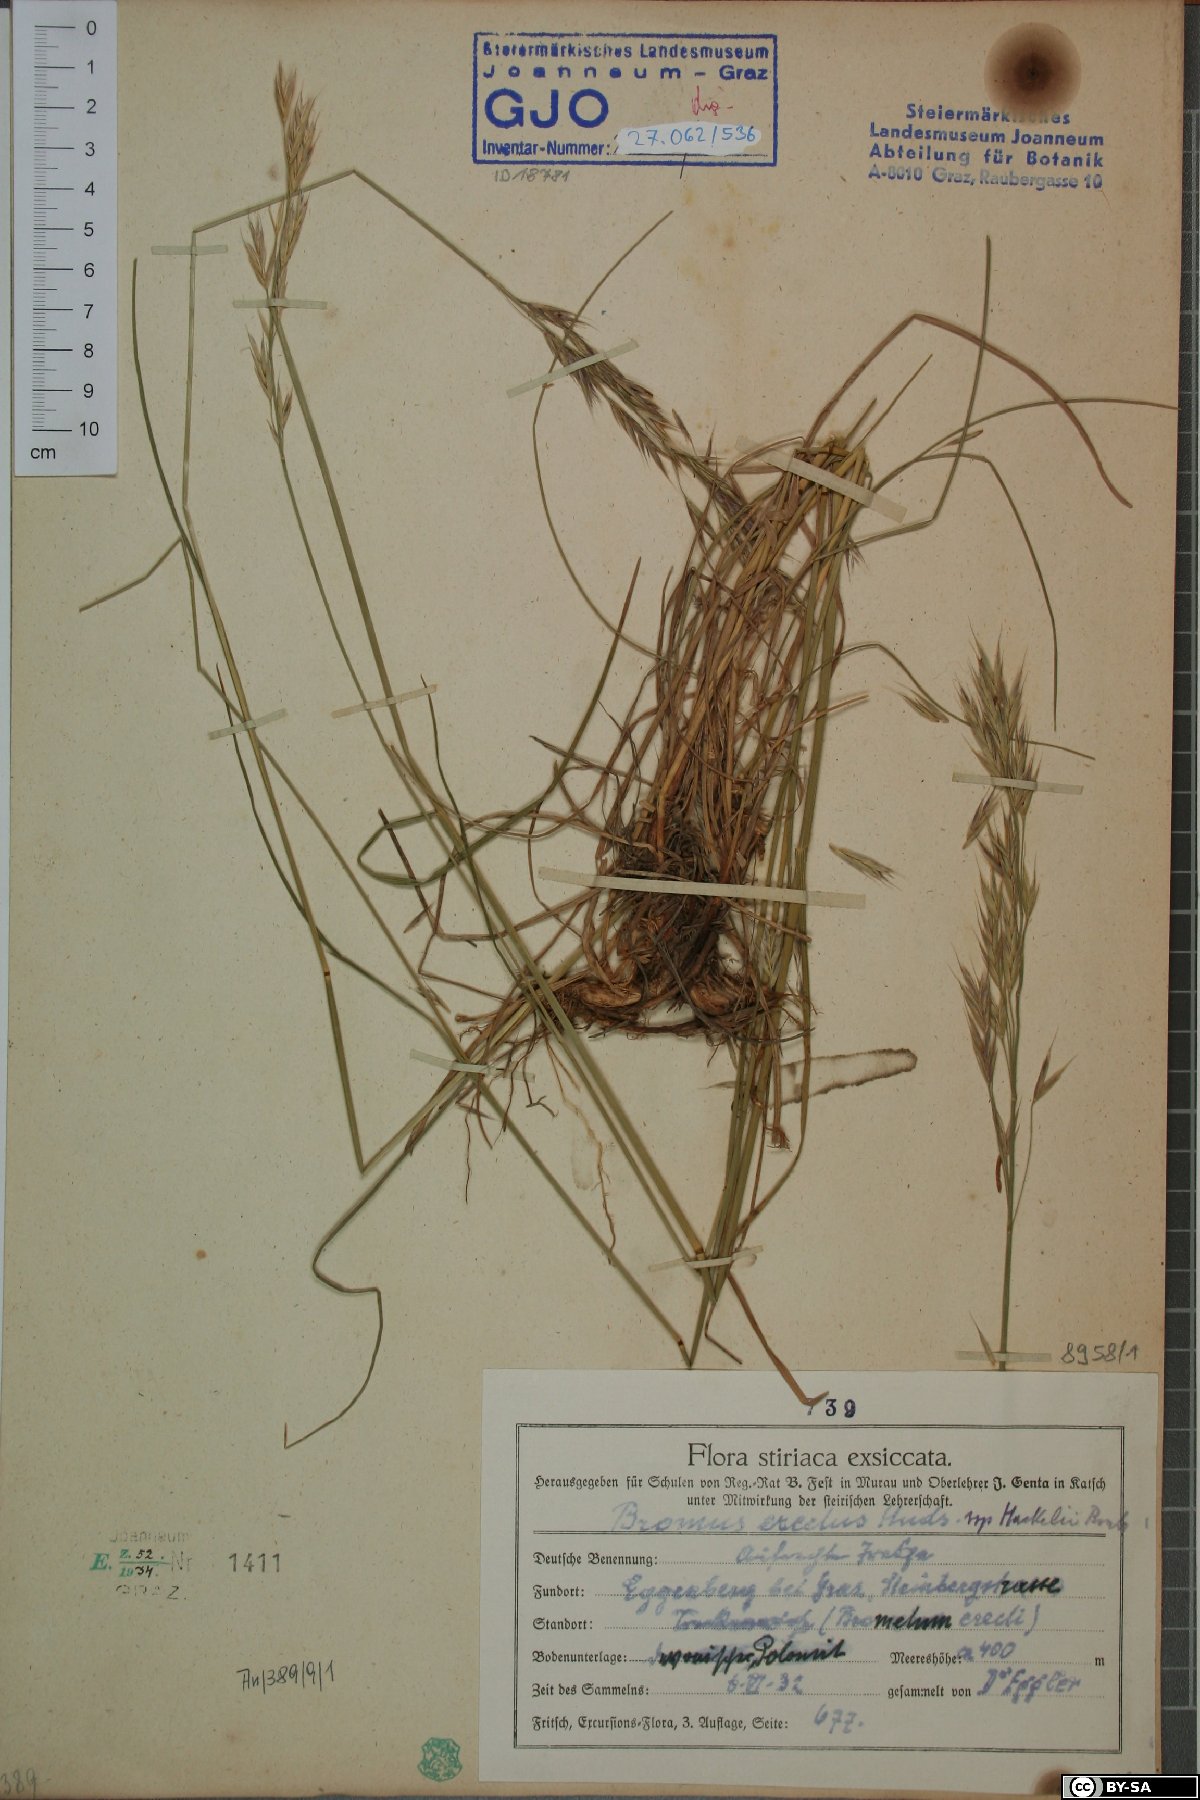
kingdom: Plantae
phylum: Tracheophyta
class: Liliopsida
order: Poales
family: Poaceae
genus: Bromus
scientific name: Bromus pannonicus
